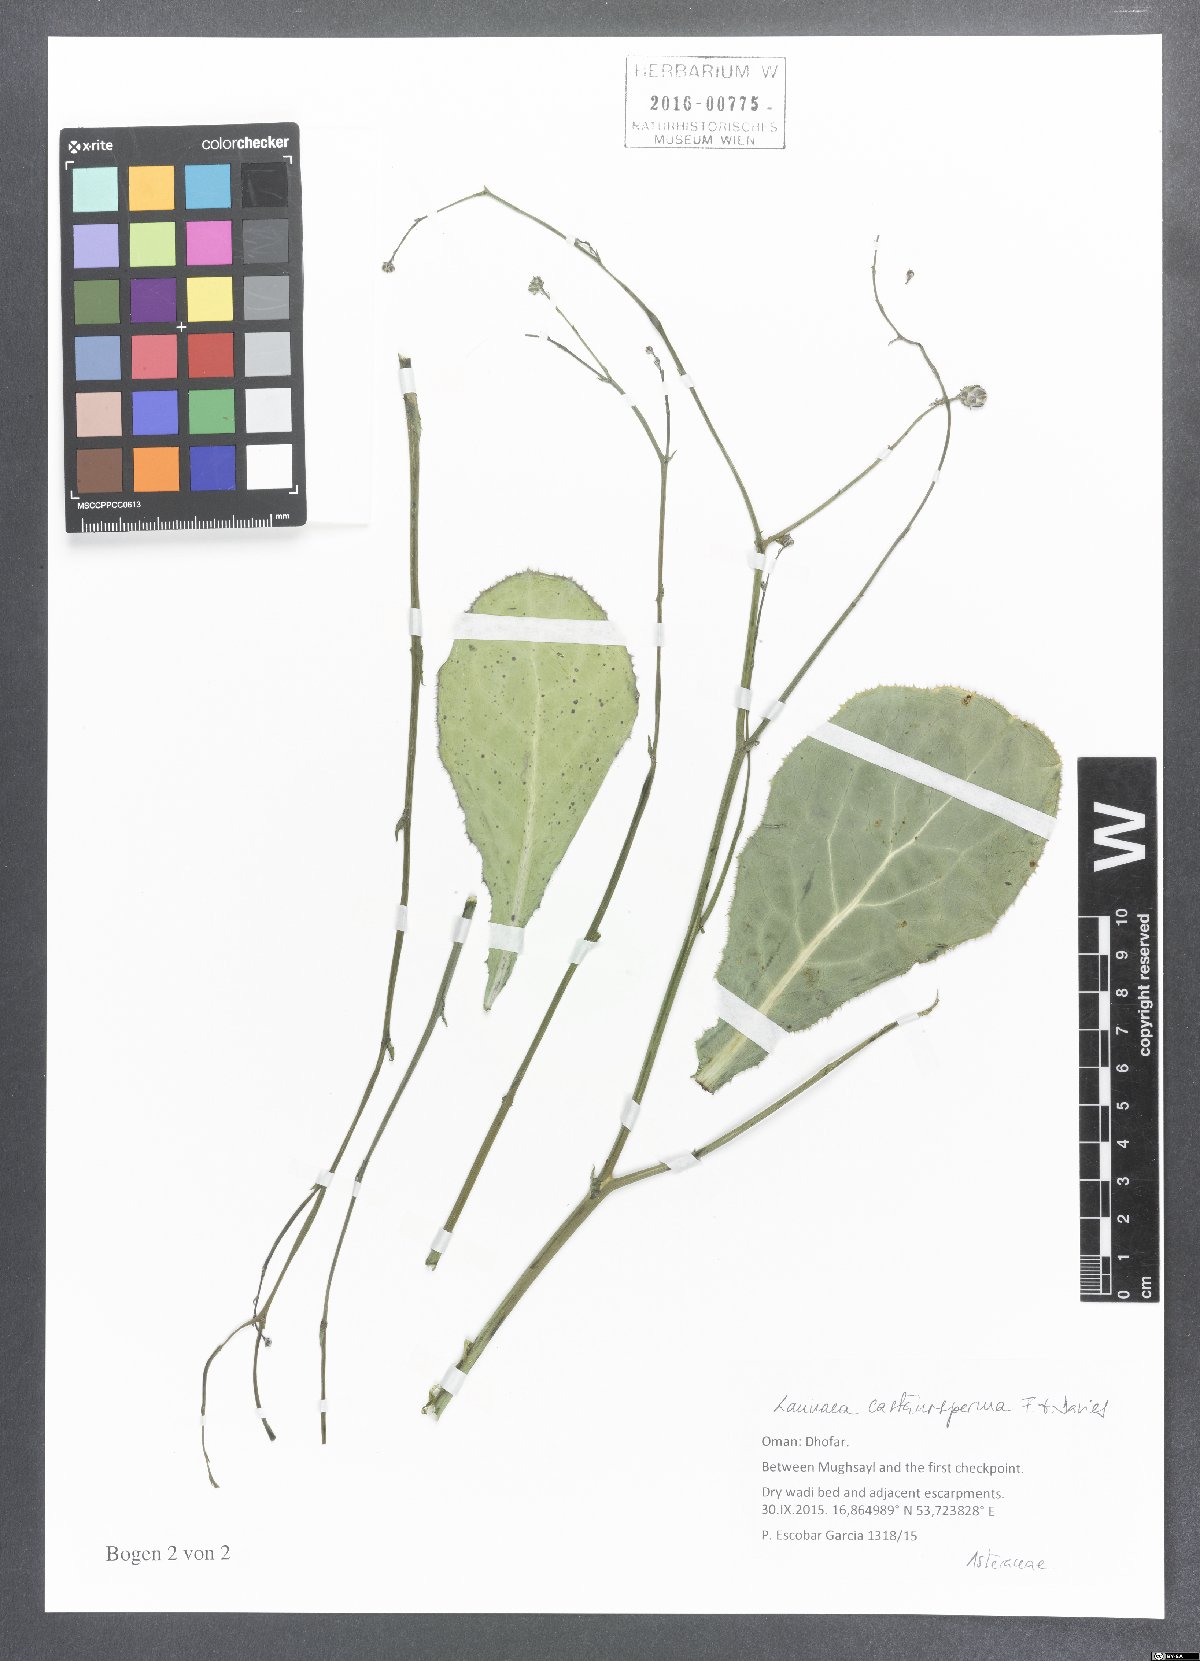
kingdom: Plantae
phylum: Tracheophyta
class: Magnoliopsida
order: Asterales
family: Asteraceae
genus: Launaea
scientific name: Launaea castanosperma
